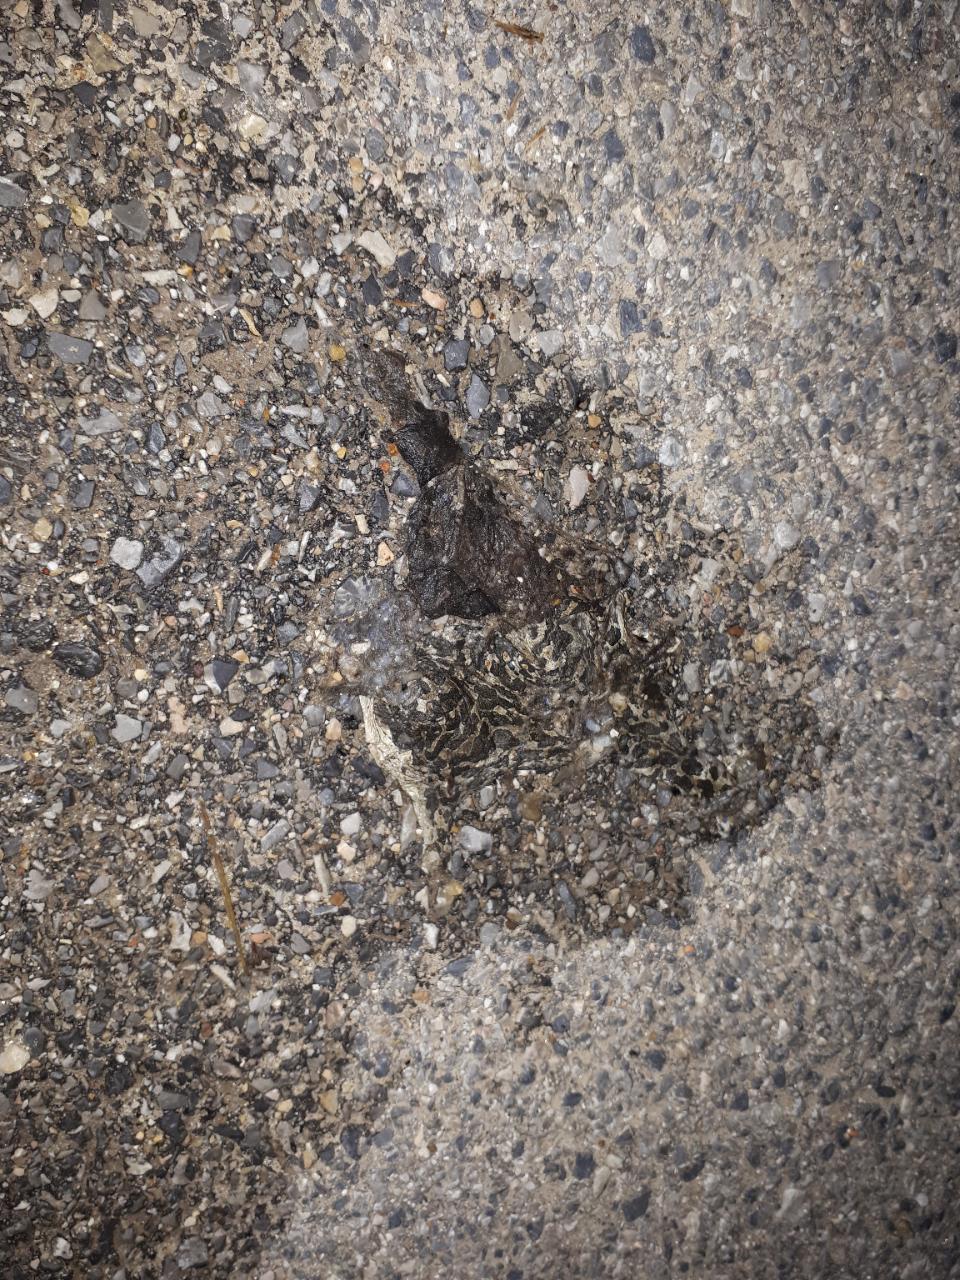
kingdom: Animalia
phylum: Chordata
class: Amphibia
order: Anura
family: Bufonidae
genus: Bufotes
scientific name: Bufotes viridis
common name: European green toad
